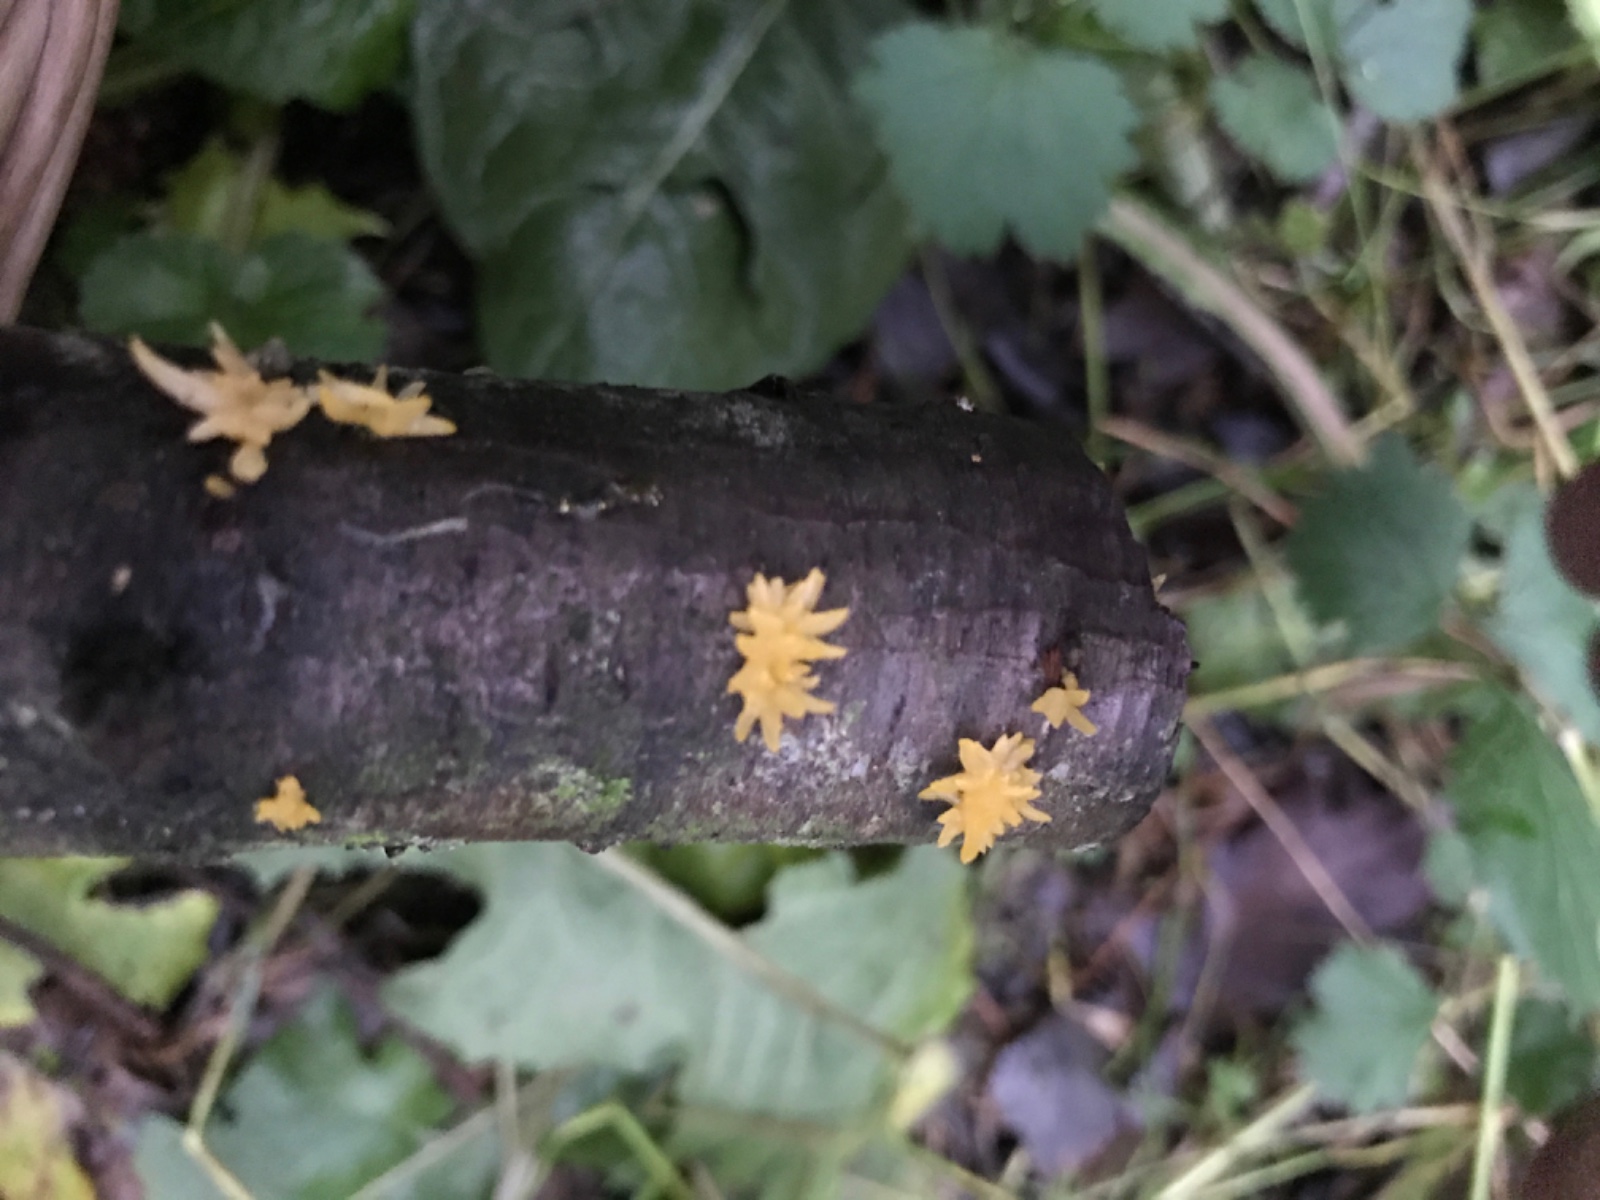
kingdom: Fungi
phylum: Basidiomycota
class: Dacrymycetes
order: Dacrymycetales
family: Dacrymycetaceae
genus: Calocera
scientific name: Calocera cornea
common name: liden guldgaffel
